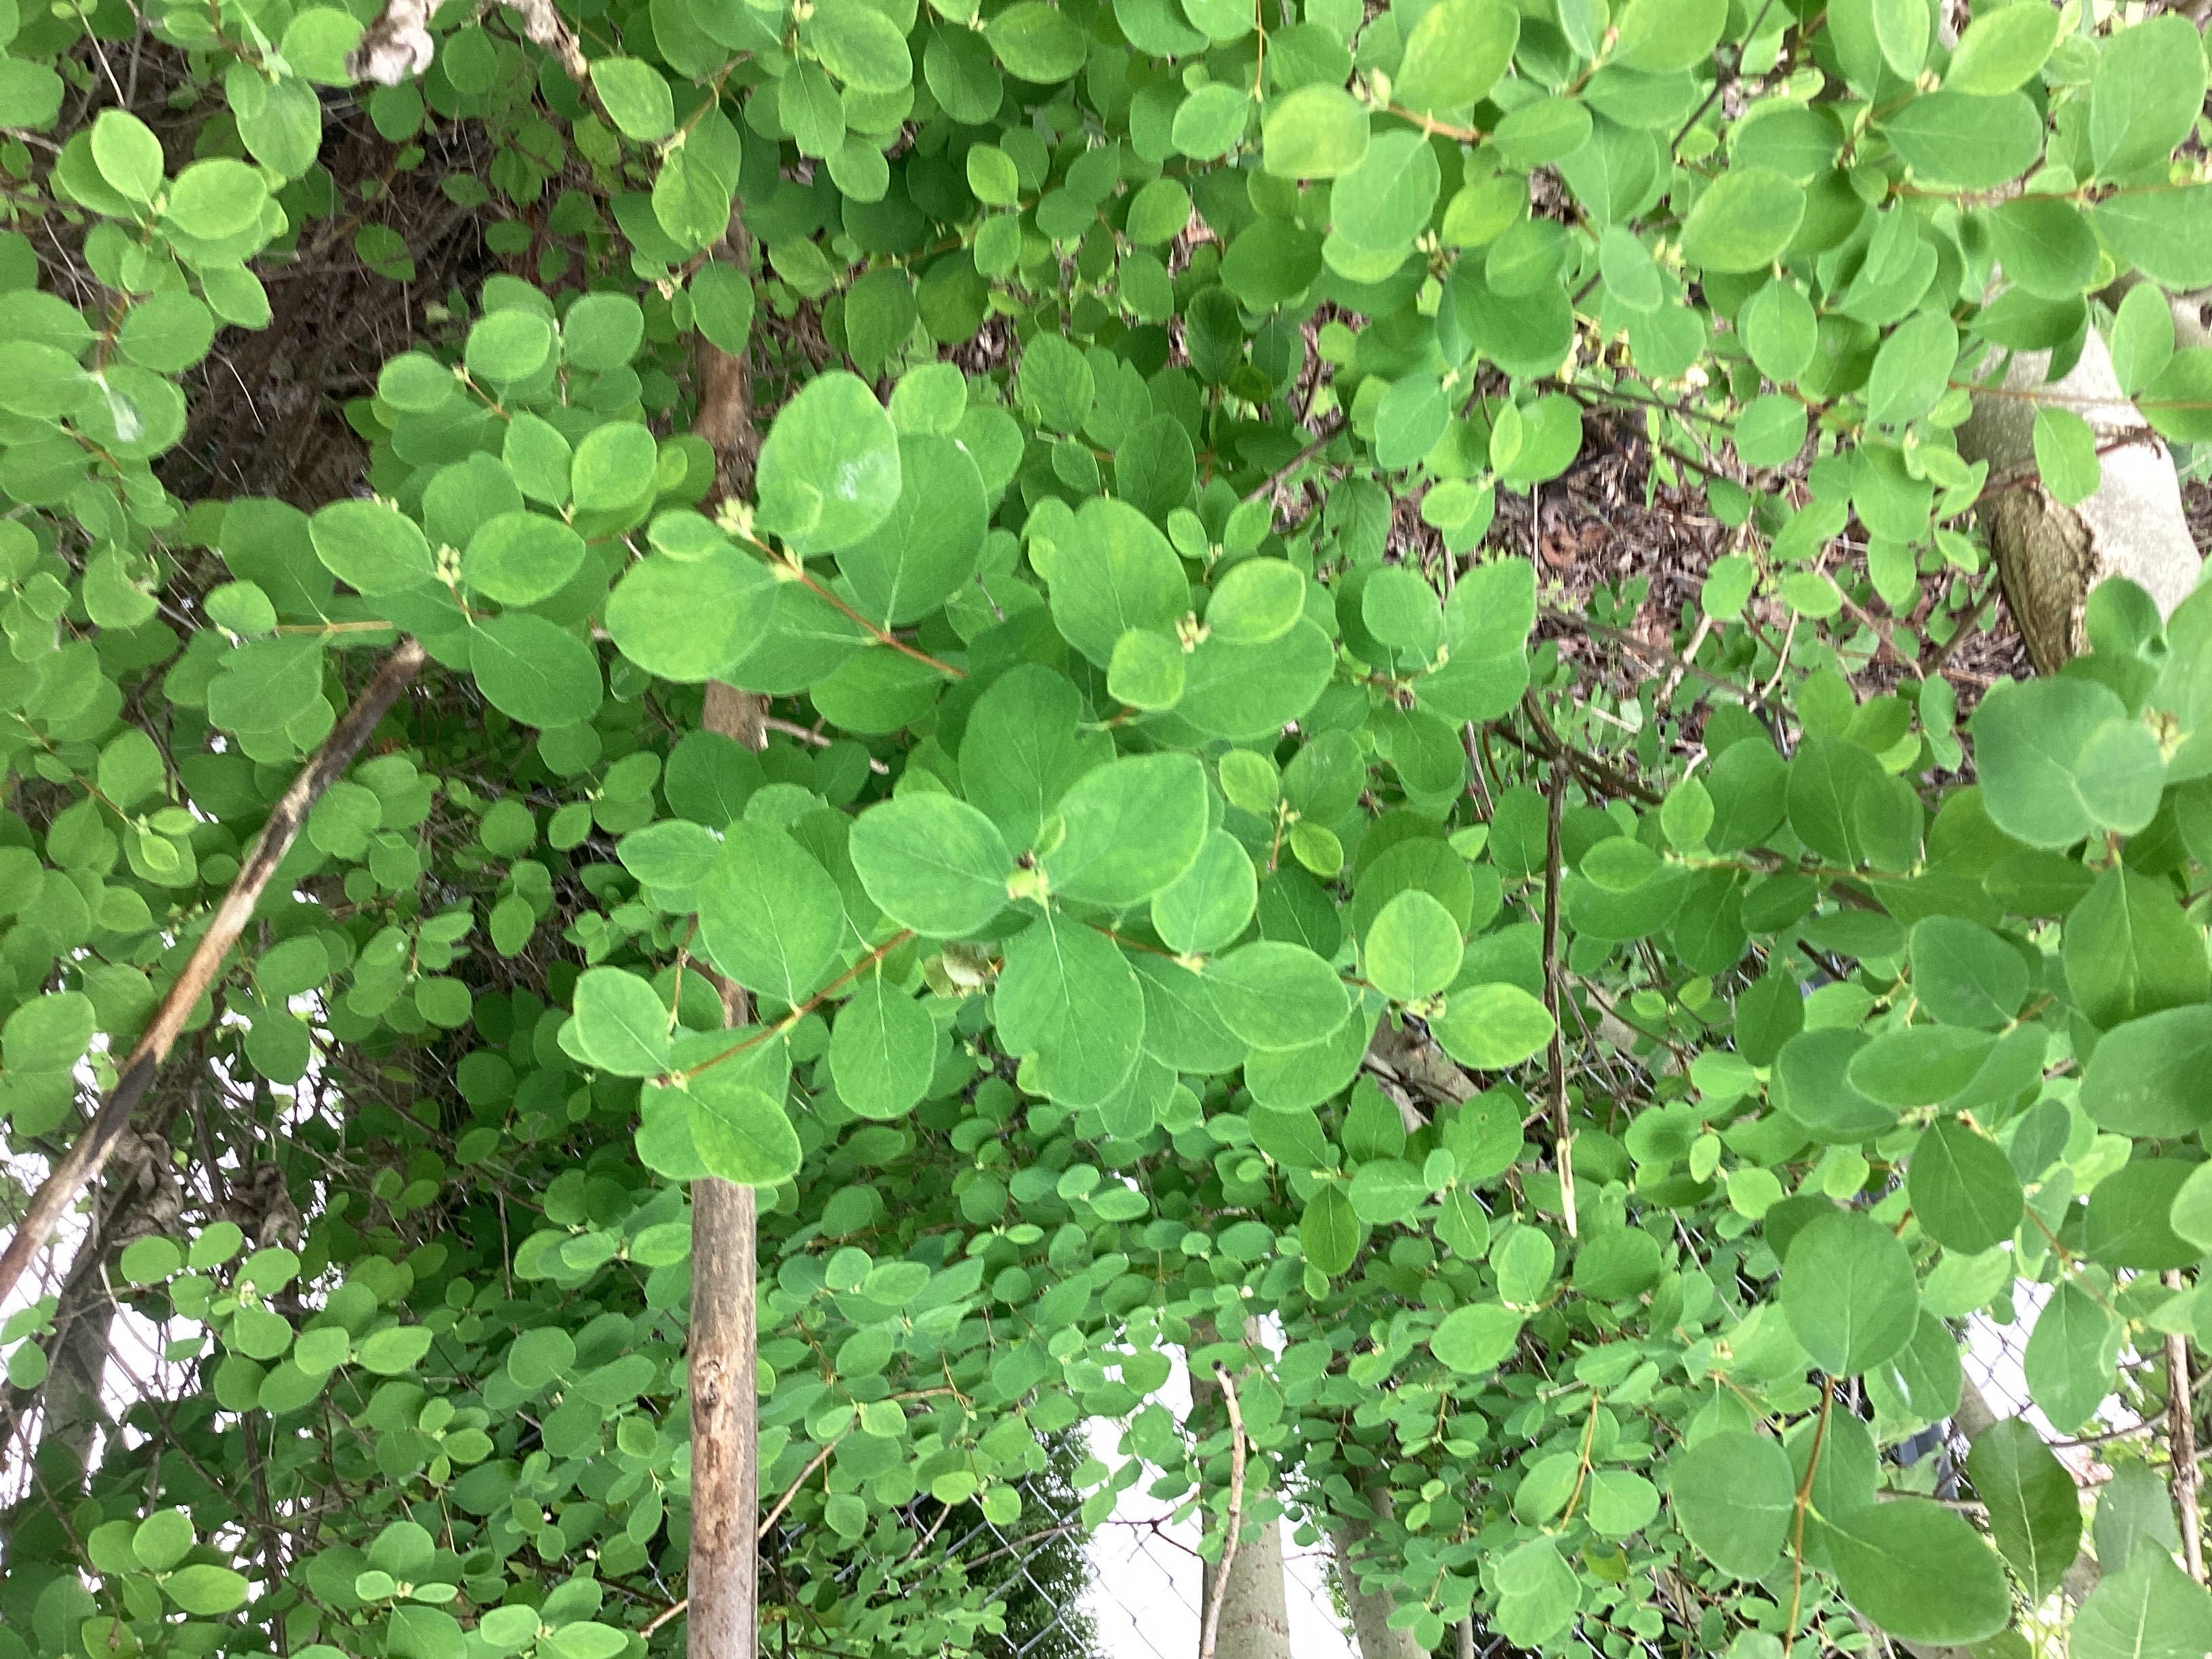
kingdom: Plantae
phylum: Tracheophyta
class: Magnoliopsida
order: Dipsacales
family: Caprifoliaceae
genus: Symphoricarpos
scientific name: Symphoricarpos albus
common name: snøbær
